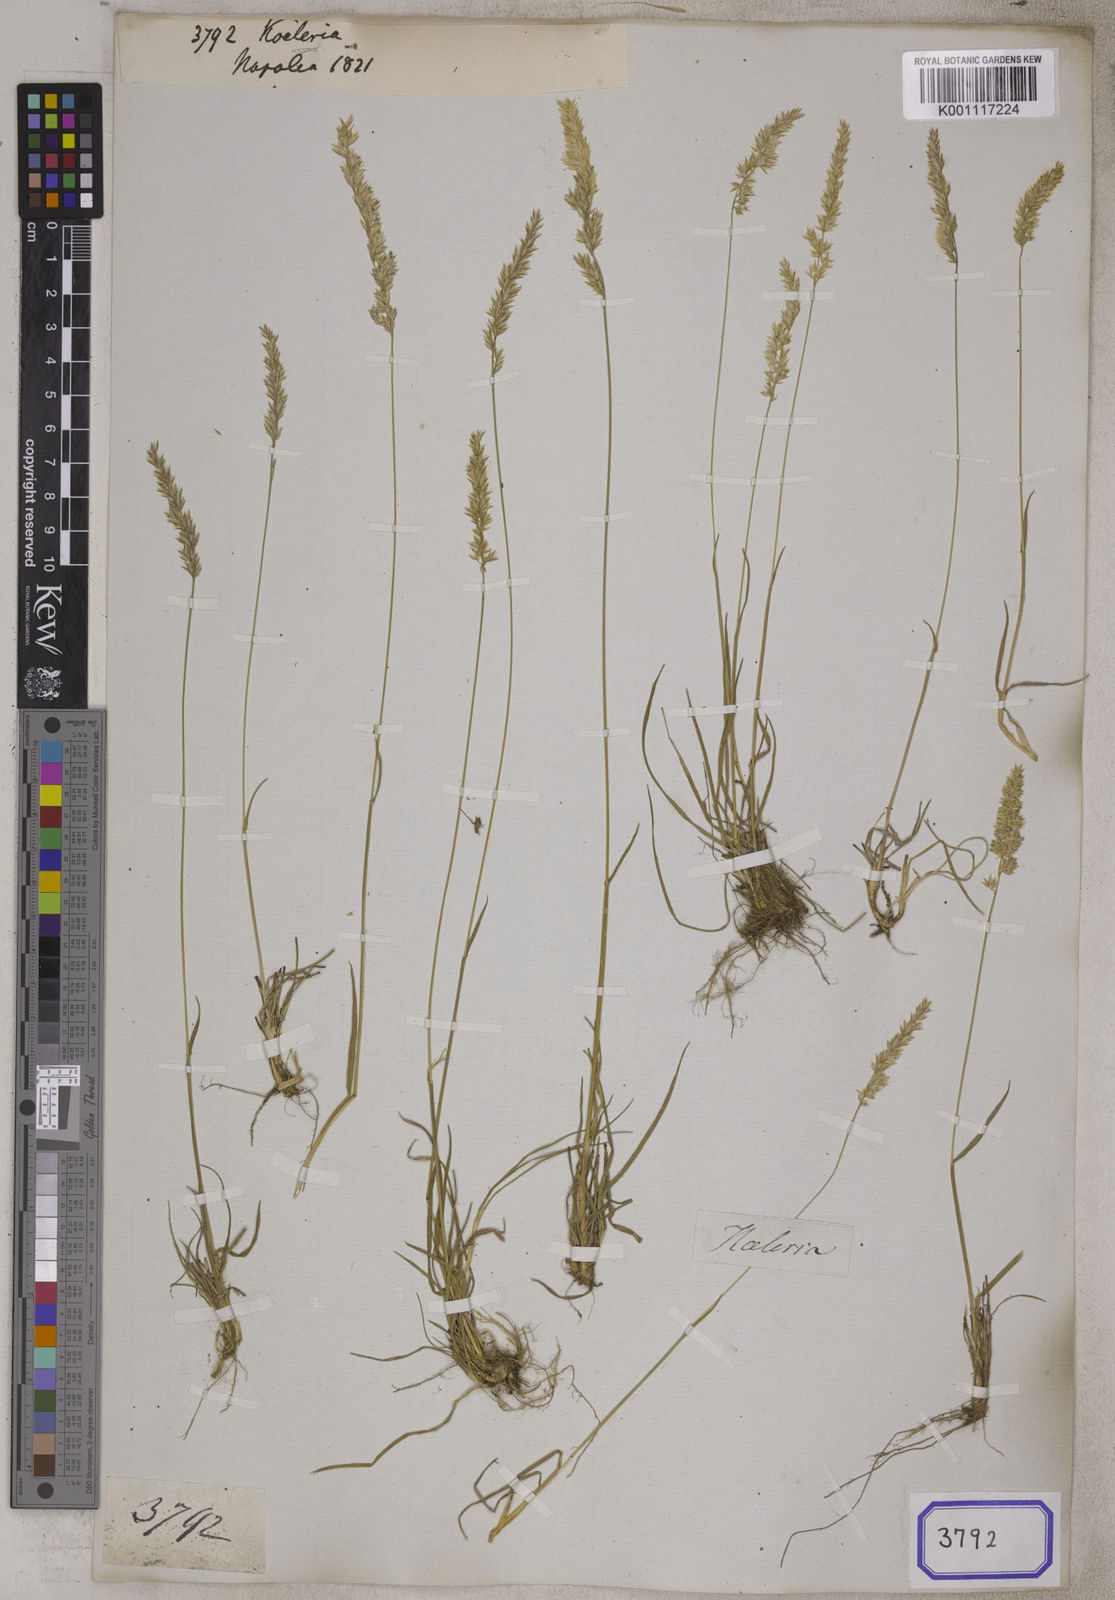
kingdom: Plantae
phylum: Tracheophyta
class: Liliopsida
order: Poales
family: Poaceae
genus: Koeleria
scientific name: Koeleria
